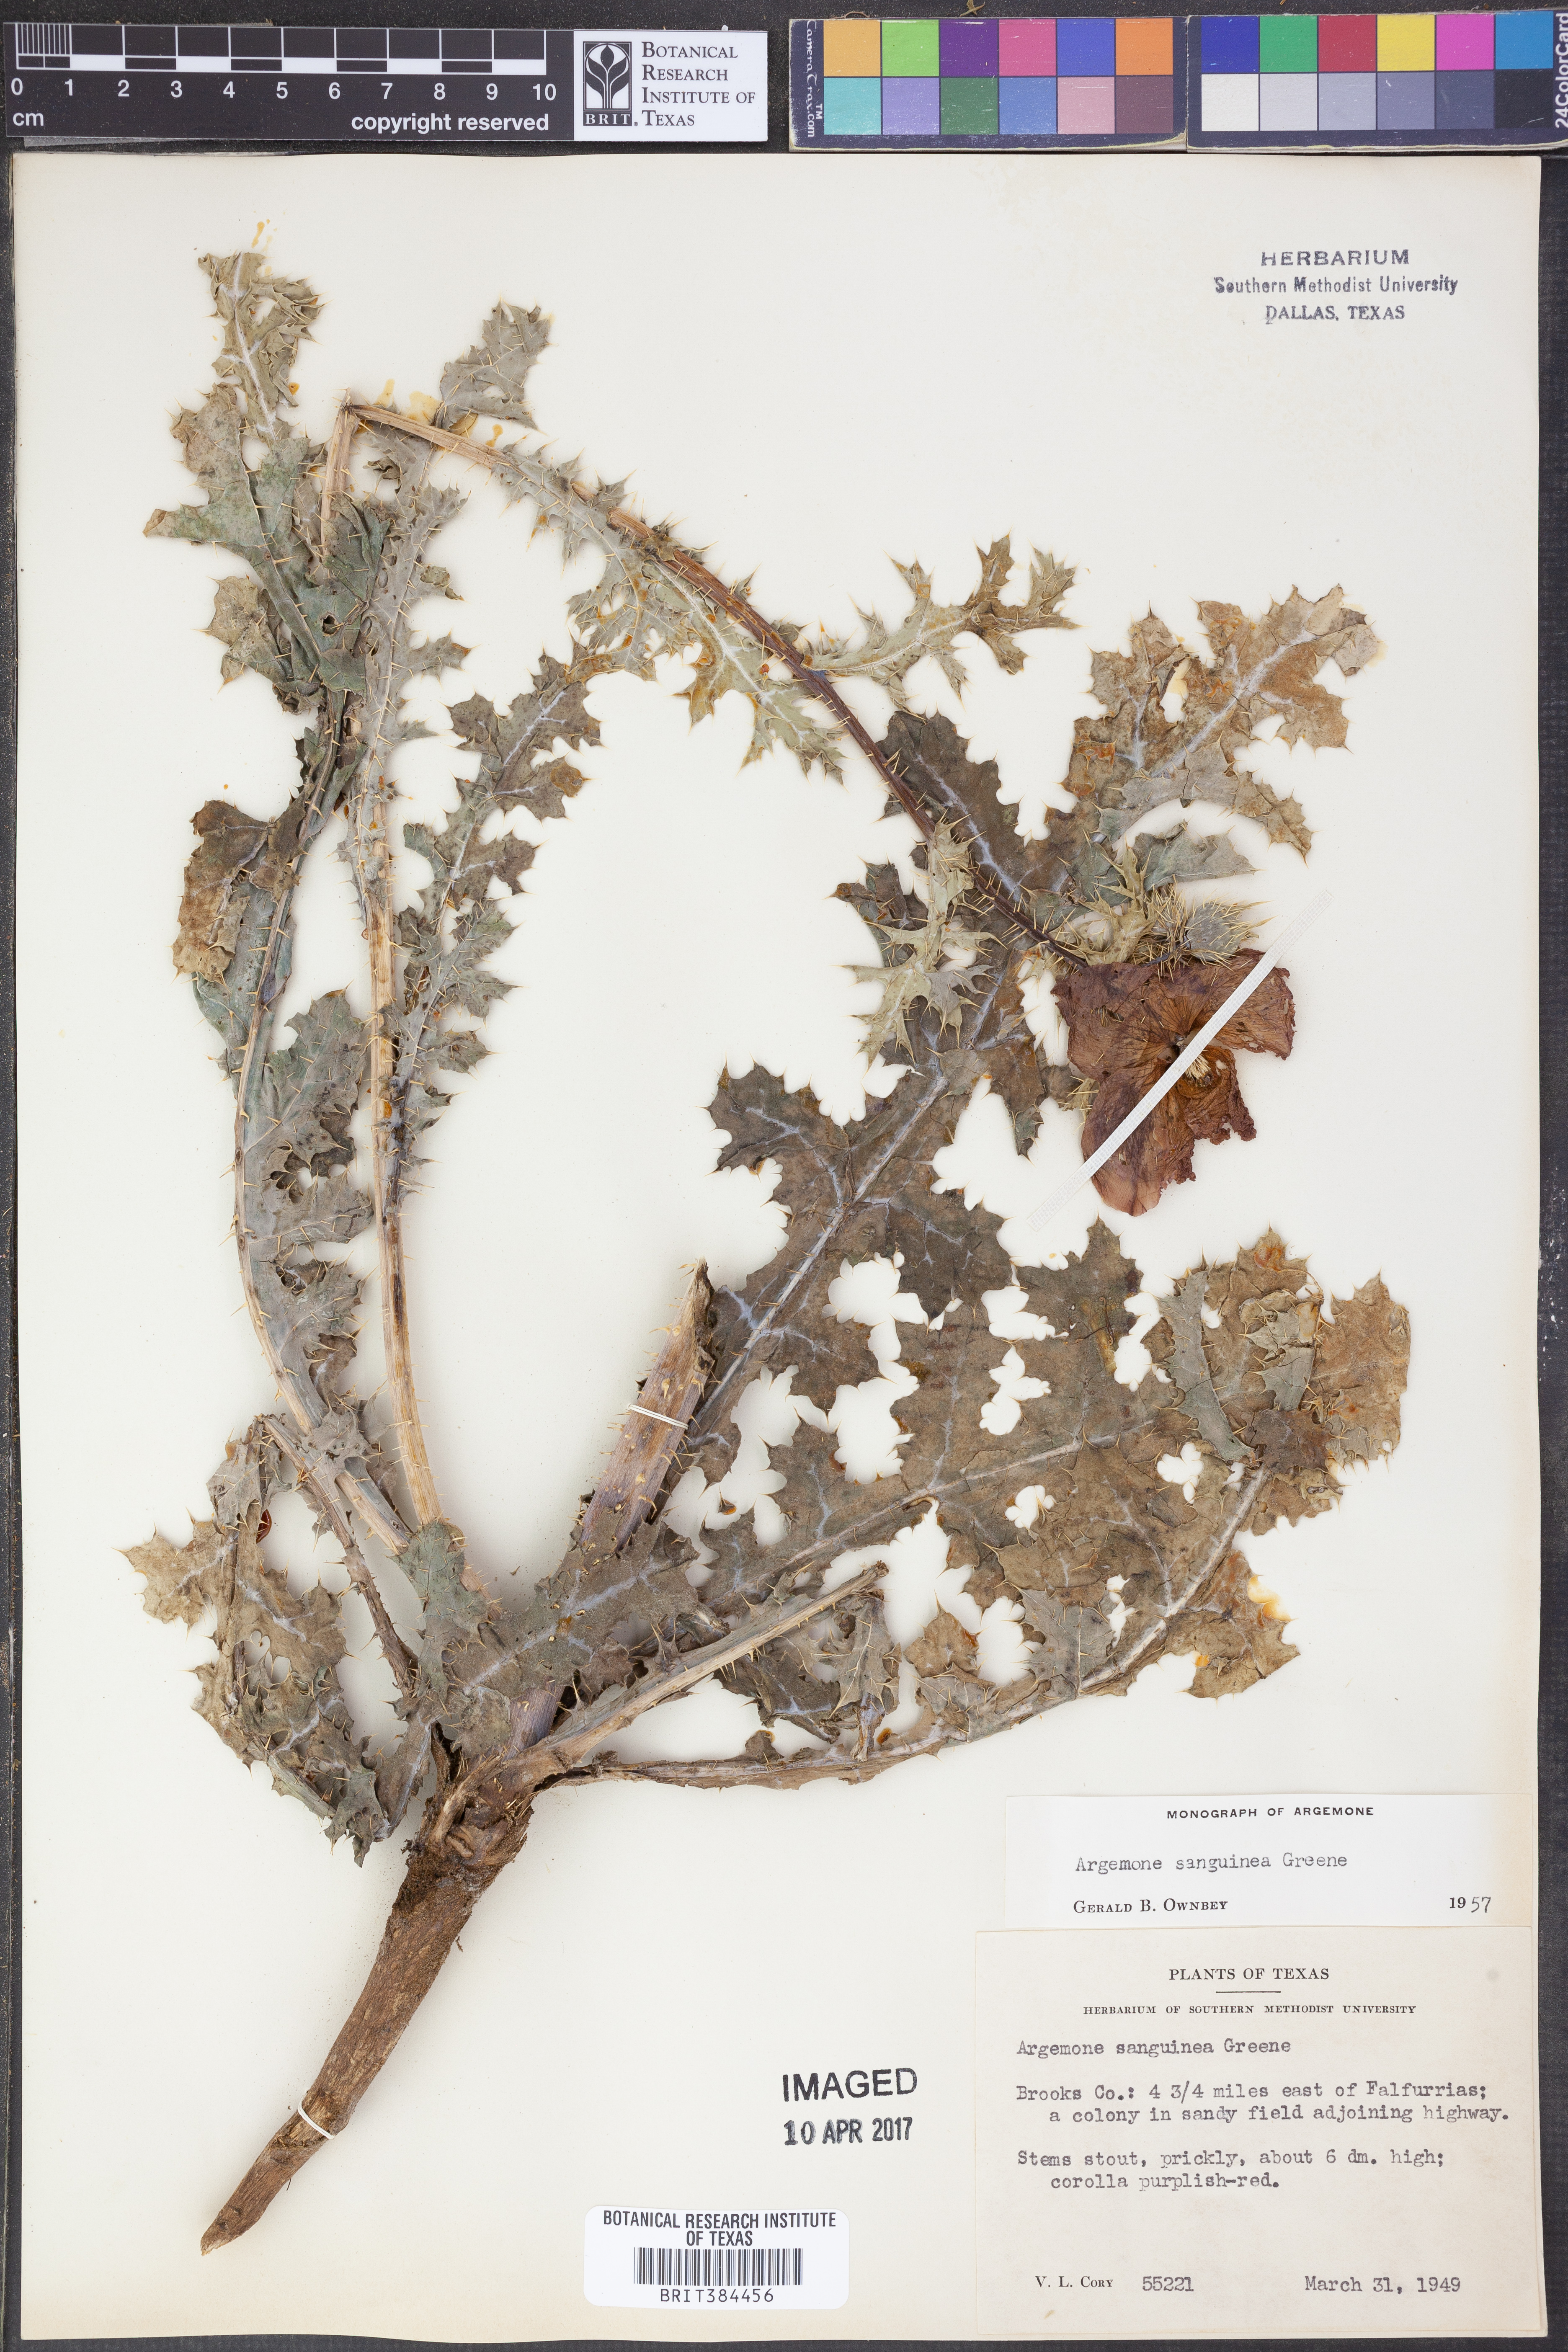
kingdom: Plantae
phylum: Tracheophyta
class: Magnoliopsida
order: Ranunculales
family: Papaveraceae
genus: Argemone
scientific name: Argemone sanguinea
